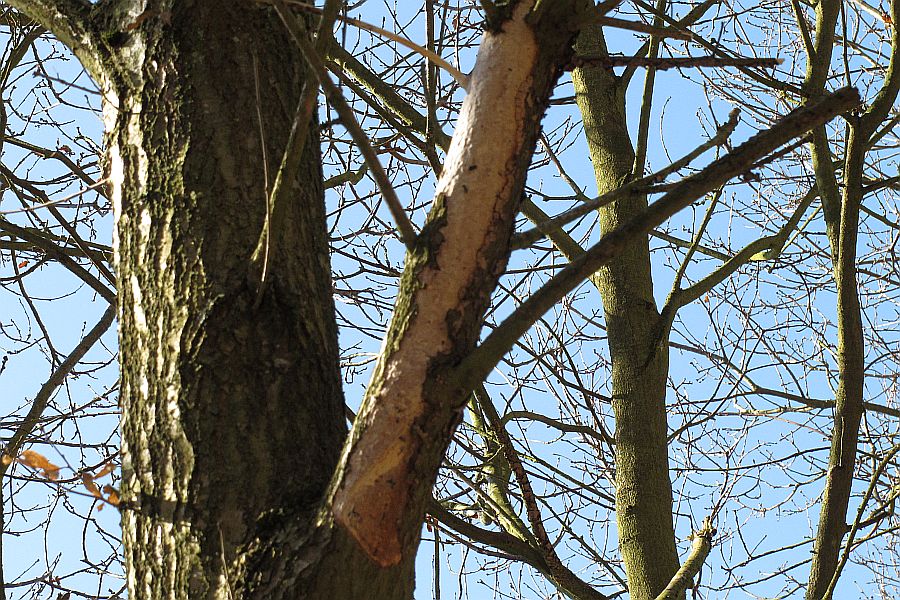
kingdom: Fungi
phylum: Basidiomycota
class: Agaricomycetes
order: Corticiales
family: Vuilleminiaceae
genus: Vuilleminia
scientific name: Vuilleminia comedens
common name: almindelig barksprænger
